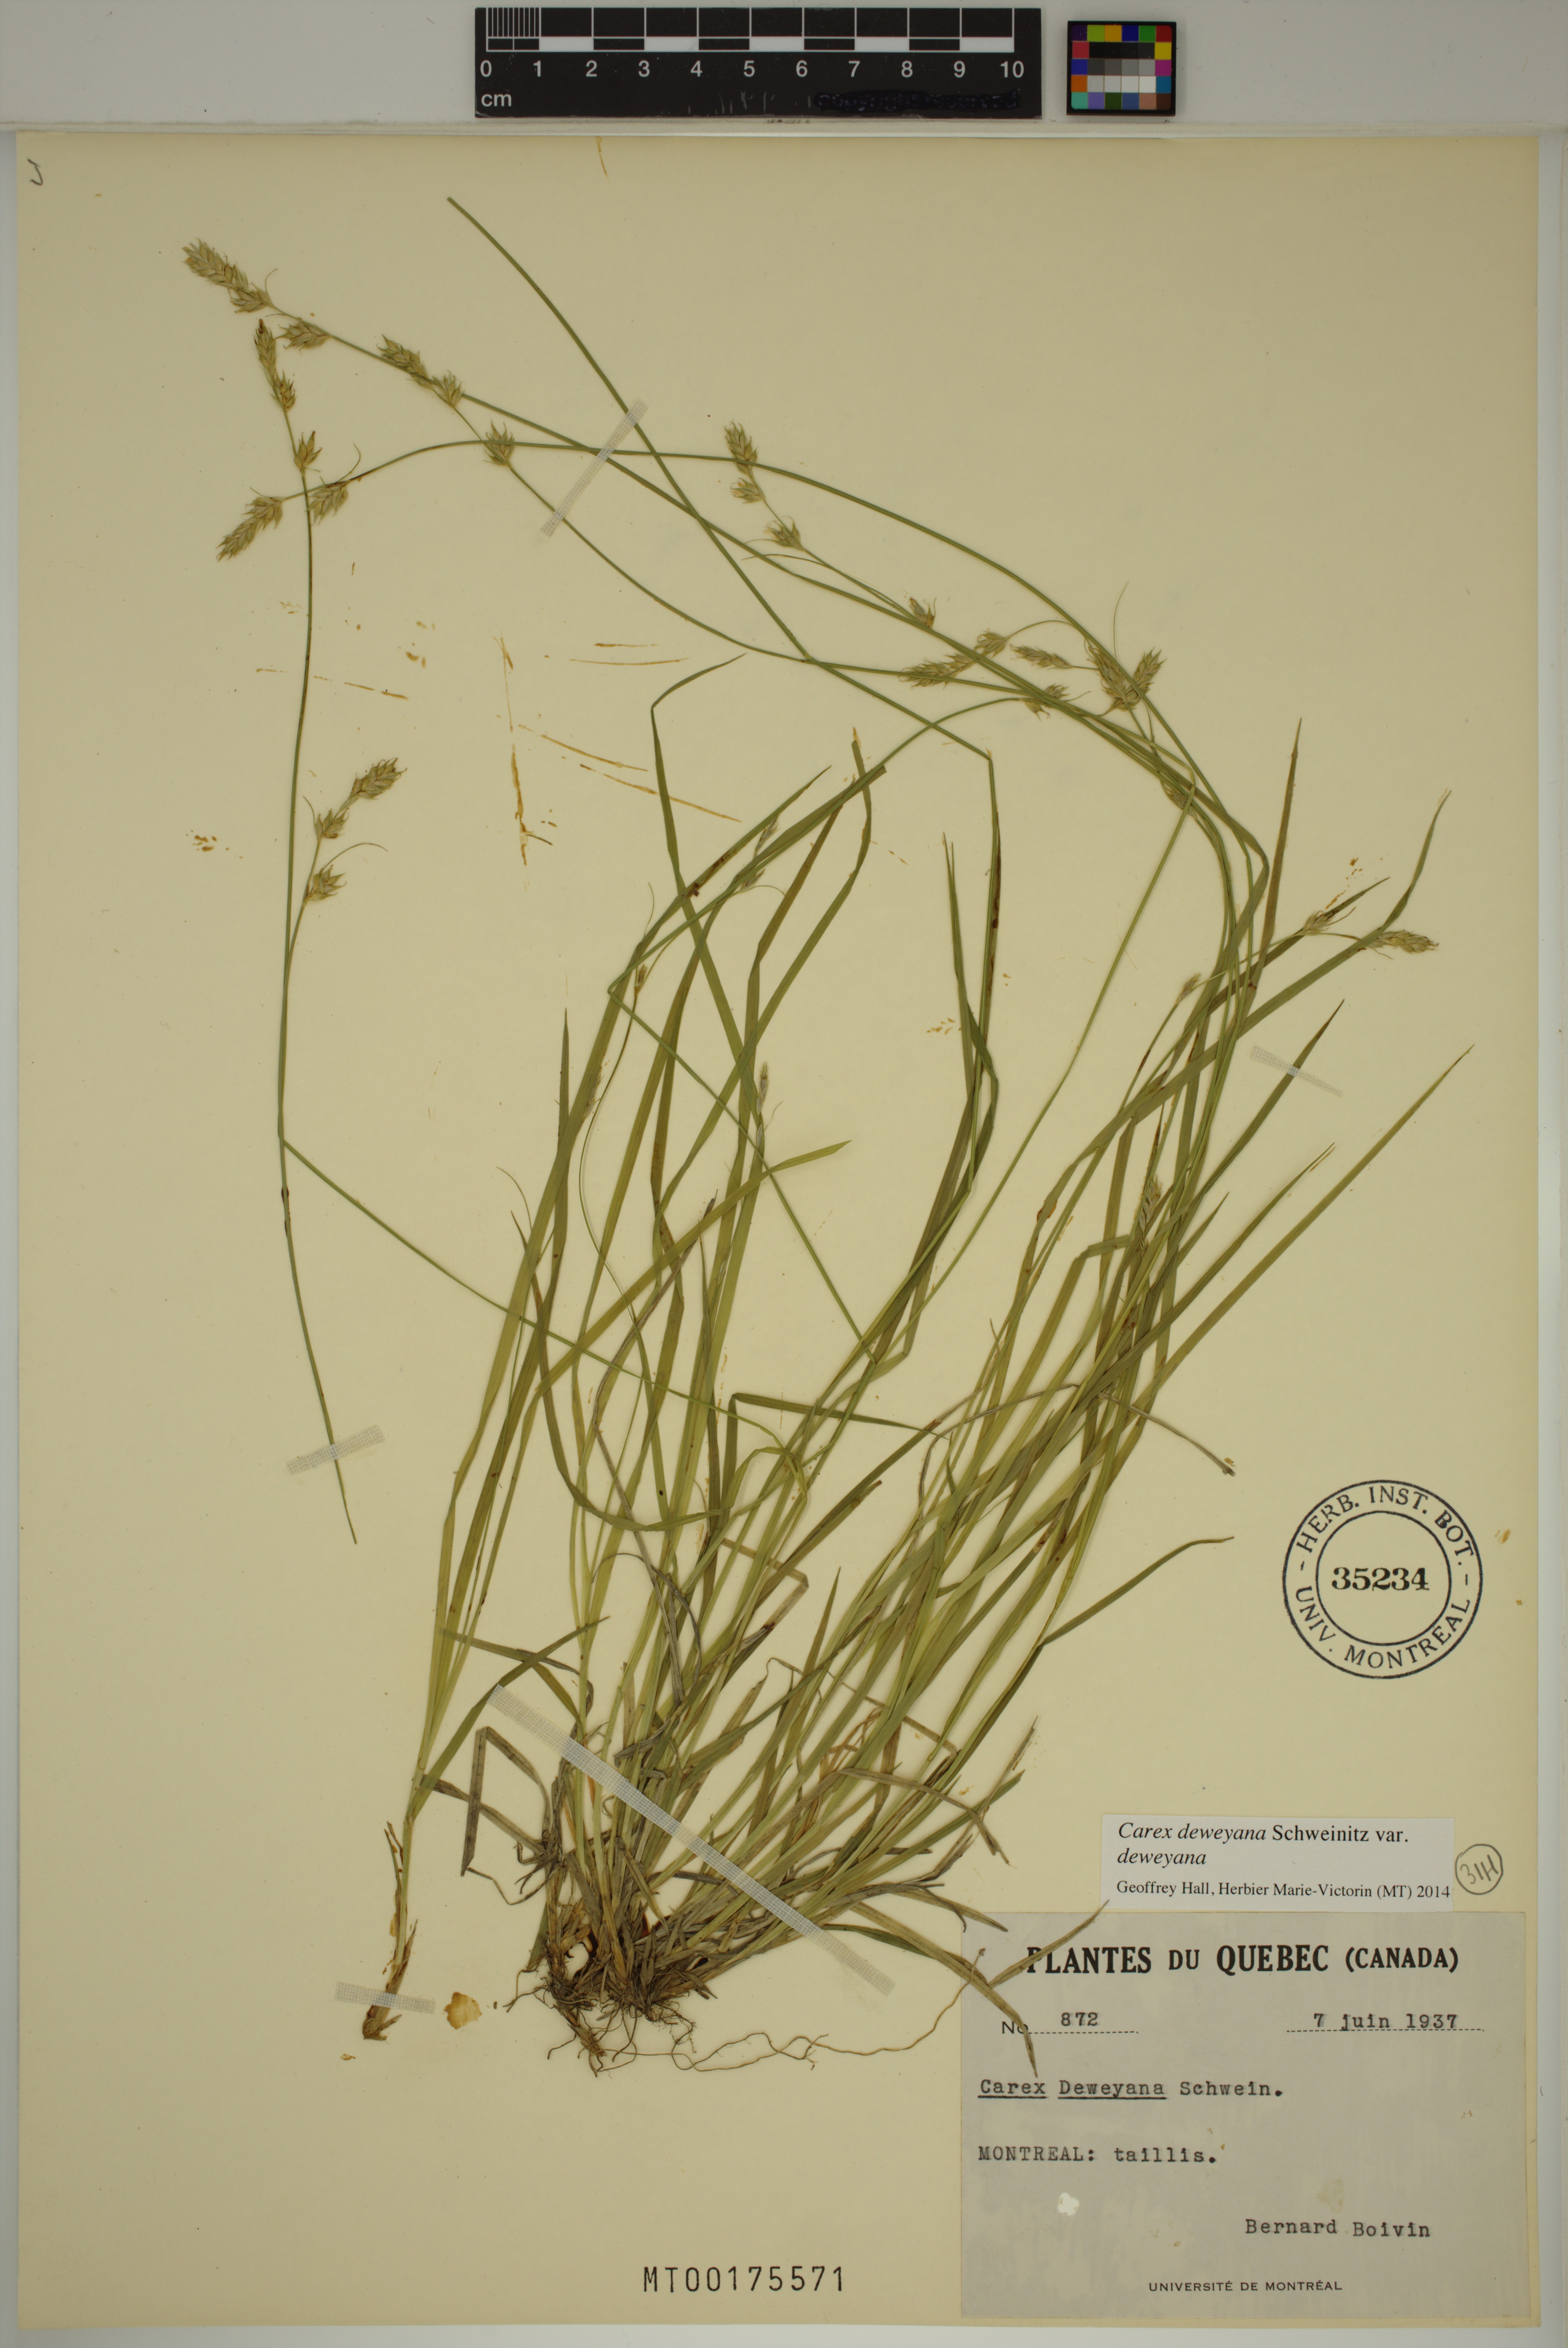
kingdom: Plantae
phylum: Tracheophyta
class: Liliopsida
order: Poales
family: Cyperaceae
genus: Carex
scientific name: Carex deweyana
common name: Dewey's sedge
